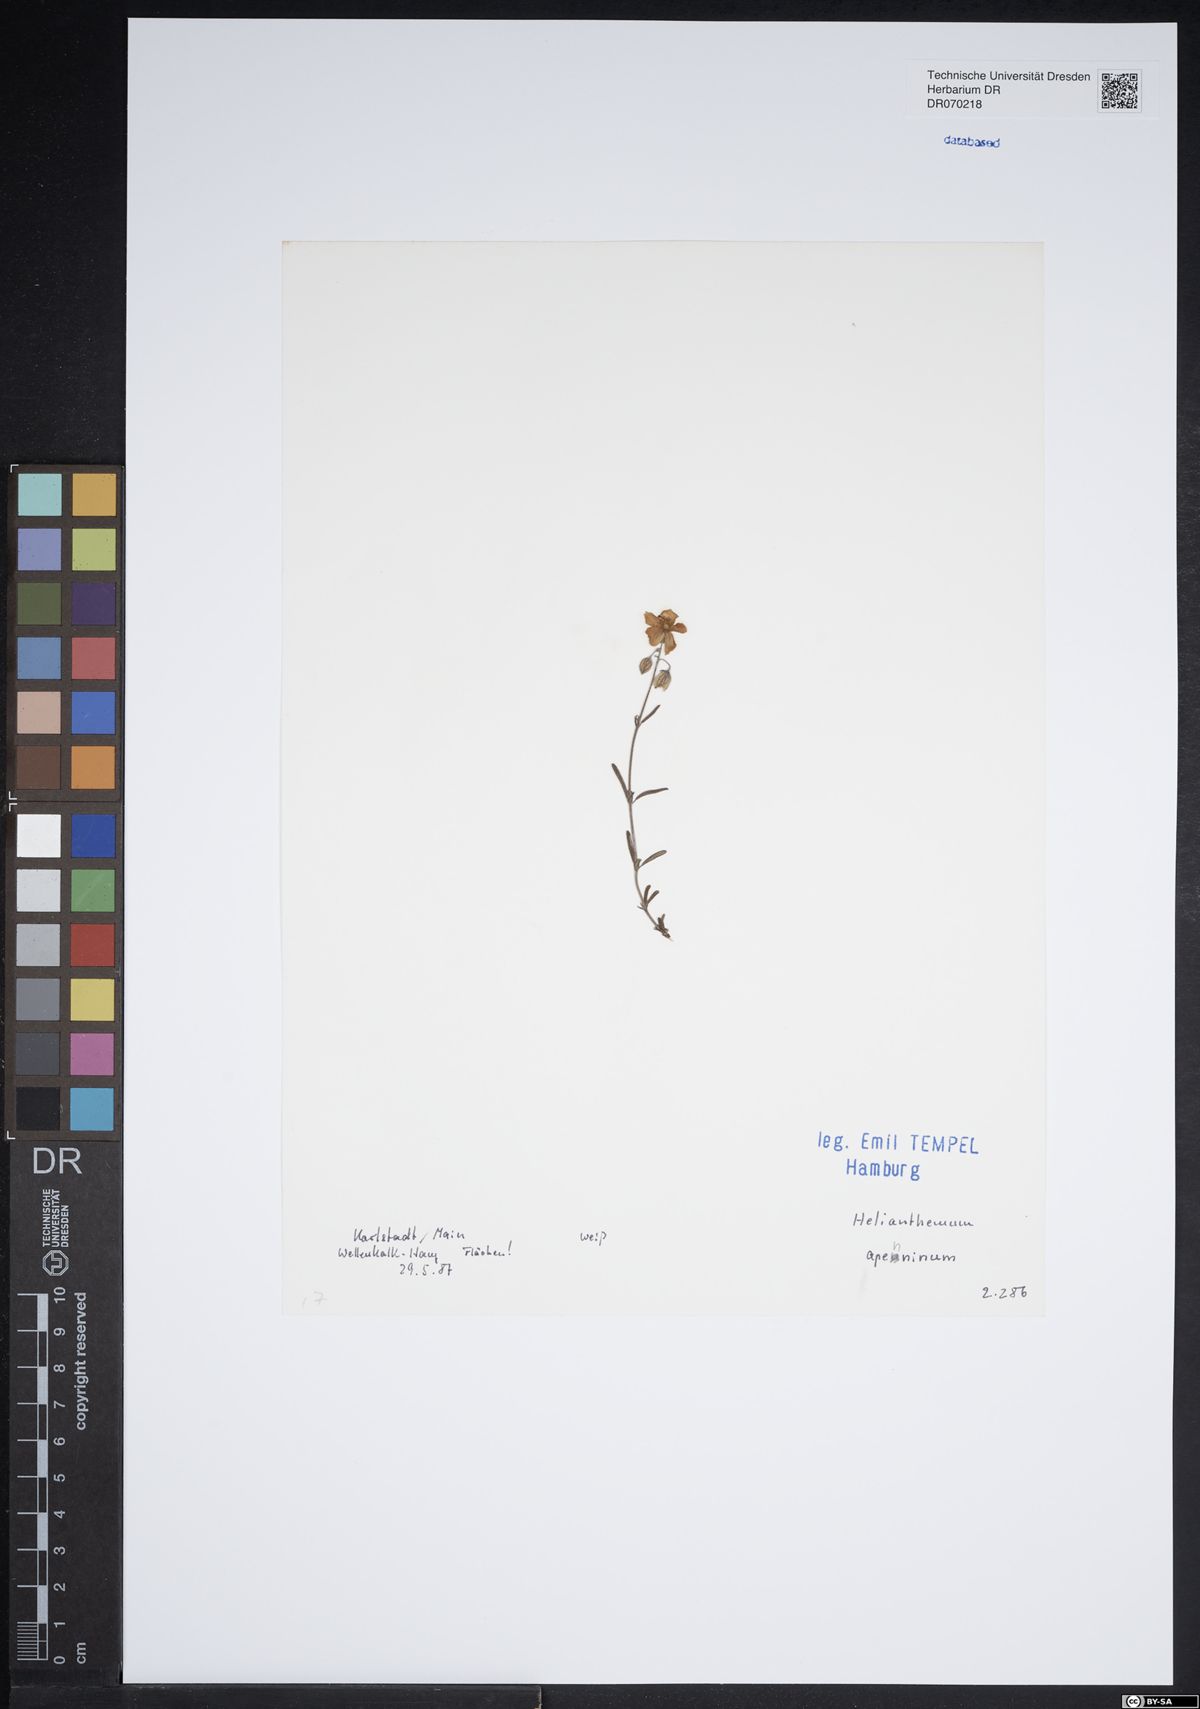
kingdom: Plantae
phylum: Tracheophyta
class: Magnoliopsida
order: Malvales
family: Cistaceae
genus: Helianthemum
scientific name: Helianthemum apenninum
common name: White rock-rose
